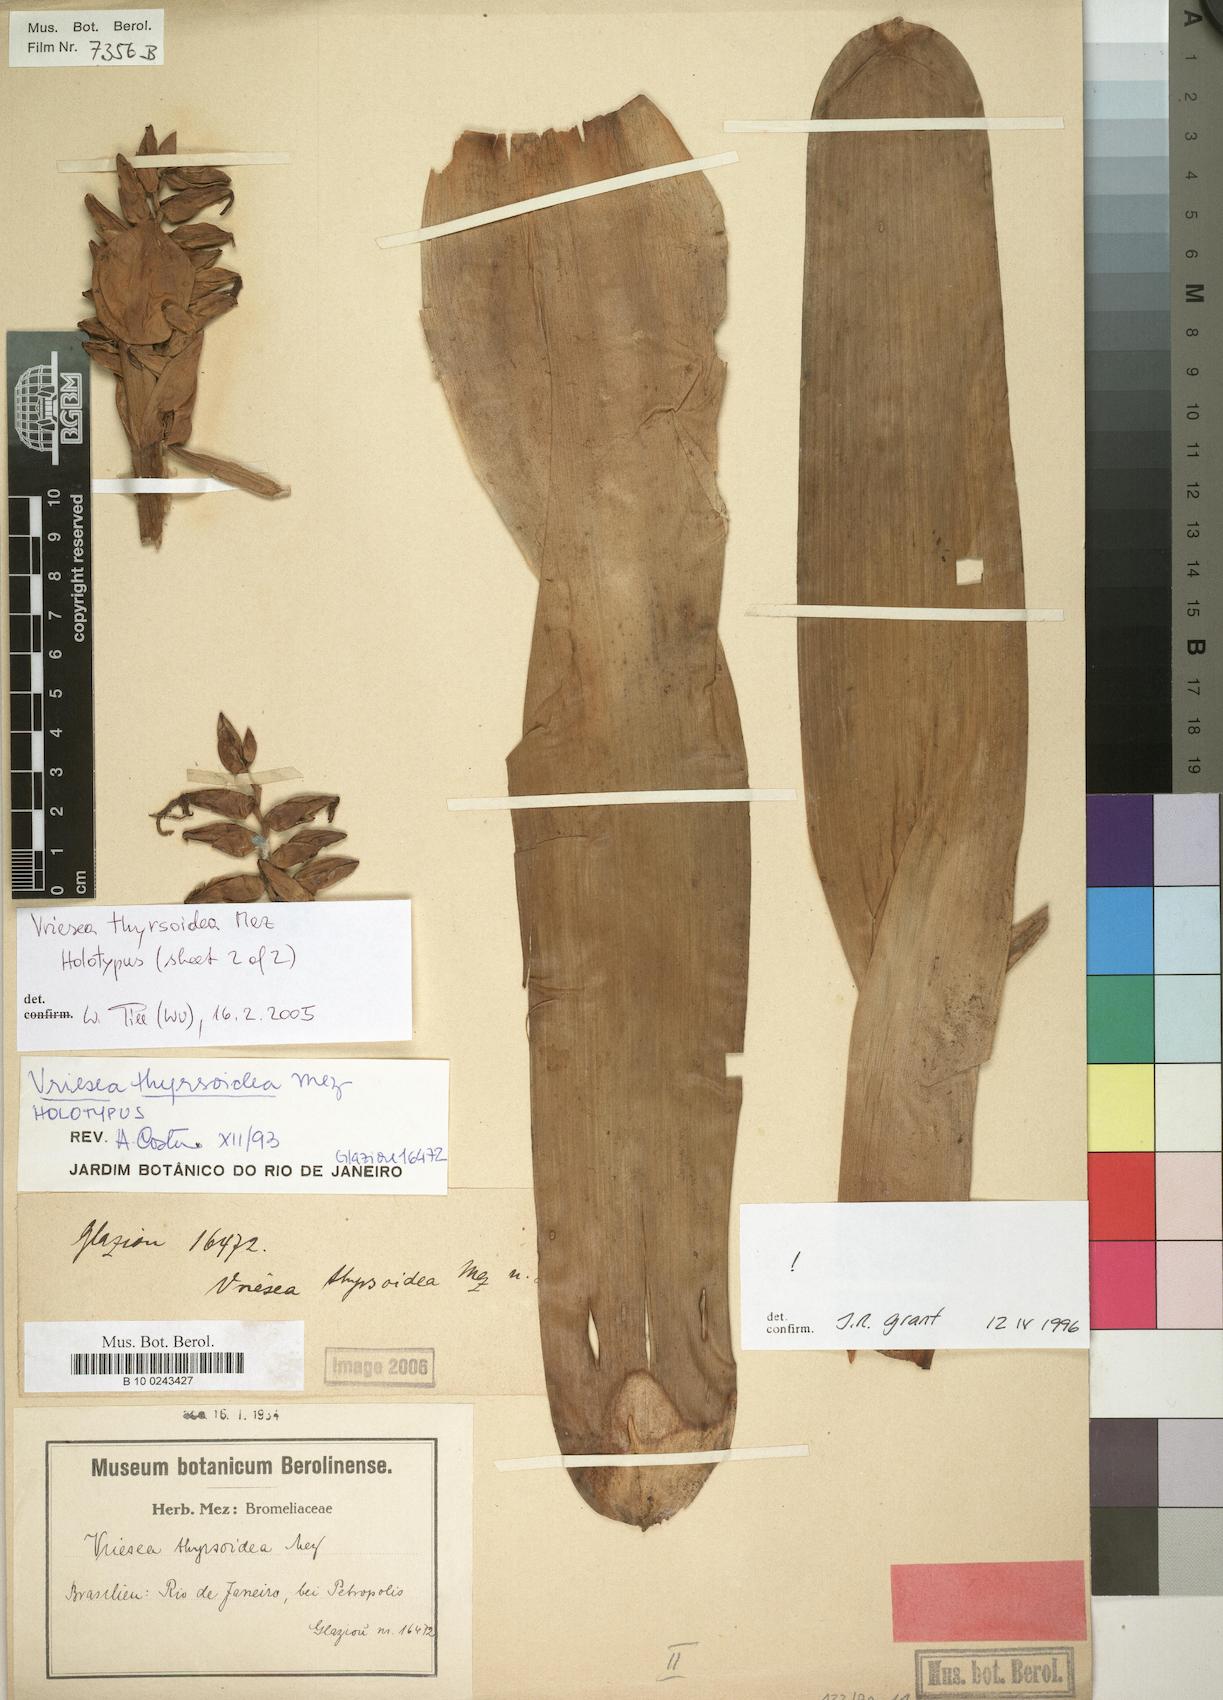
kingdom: Plantae
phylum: Tracheophyta
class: Liliopsida
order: Poales
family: Bromeliaceae
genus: Vriesea
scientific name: Vriesea thyrsoidea
